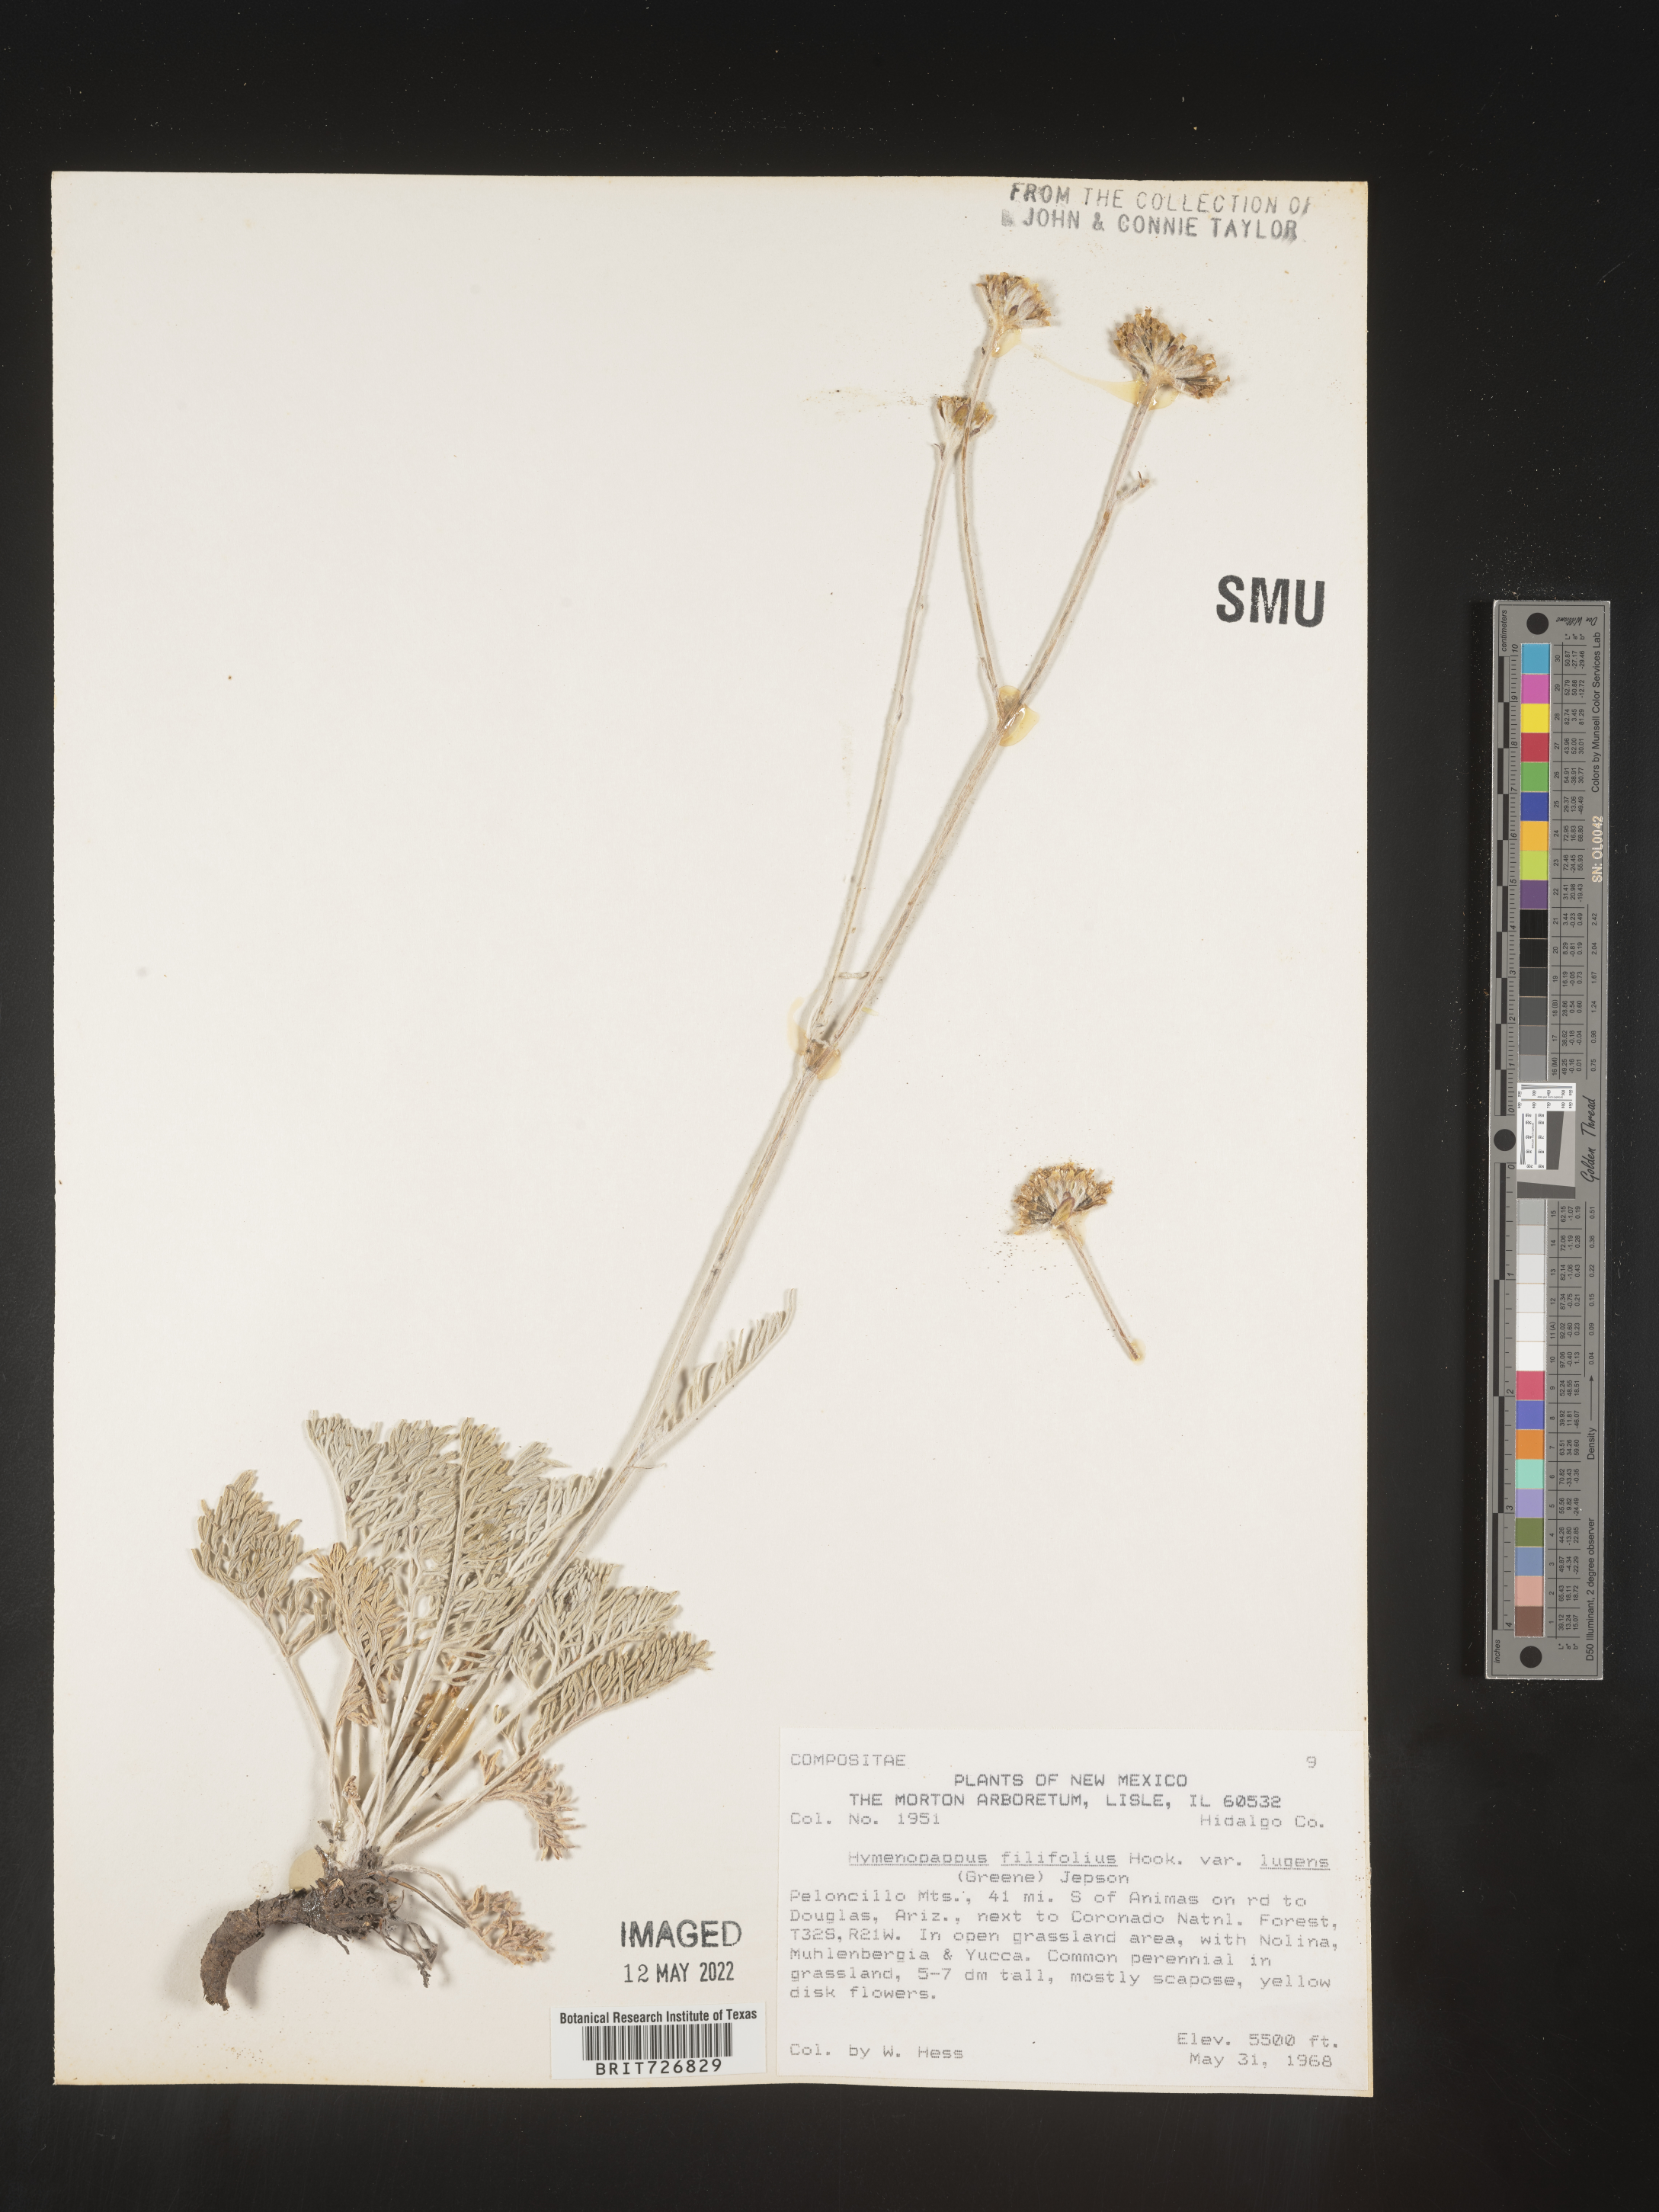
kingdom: Plantae
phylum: Tracheophyta
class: Magnoliopsida
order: Asterales
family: Asteraceae
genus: Hymenopappus
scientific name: Hymenopappus filifolius
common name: Columbia cutleaf
